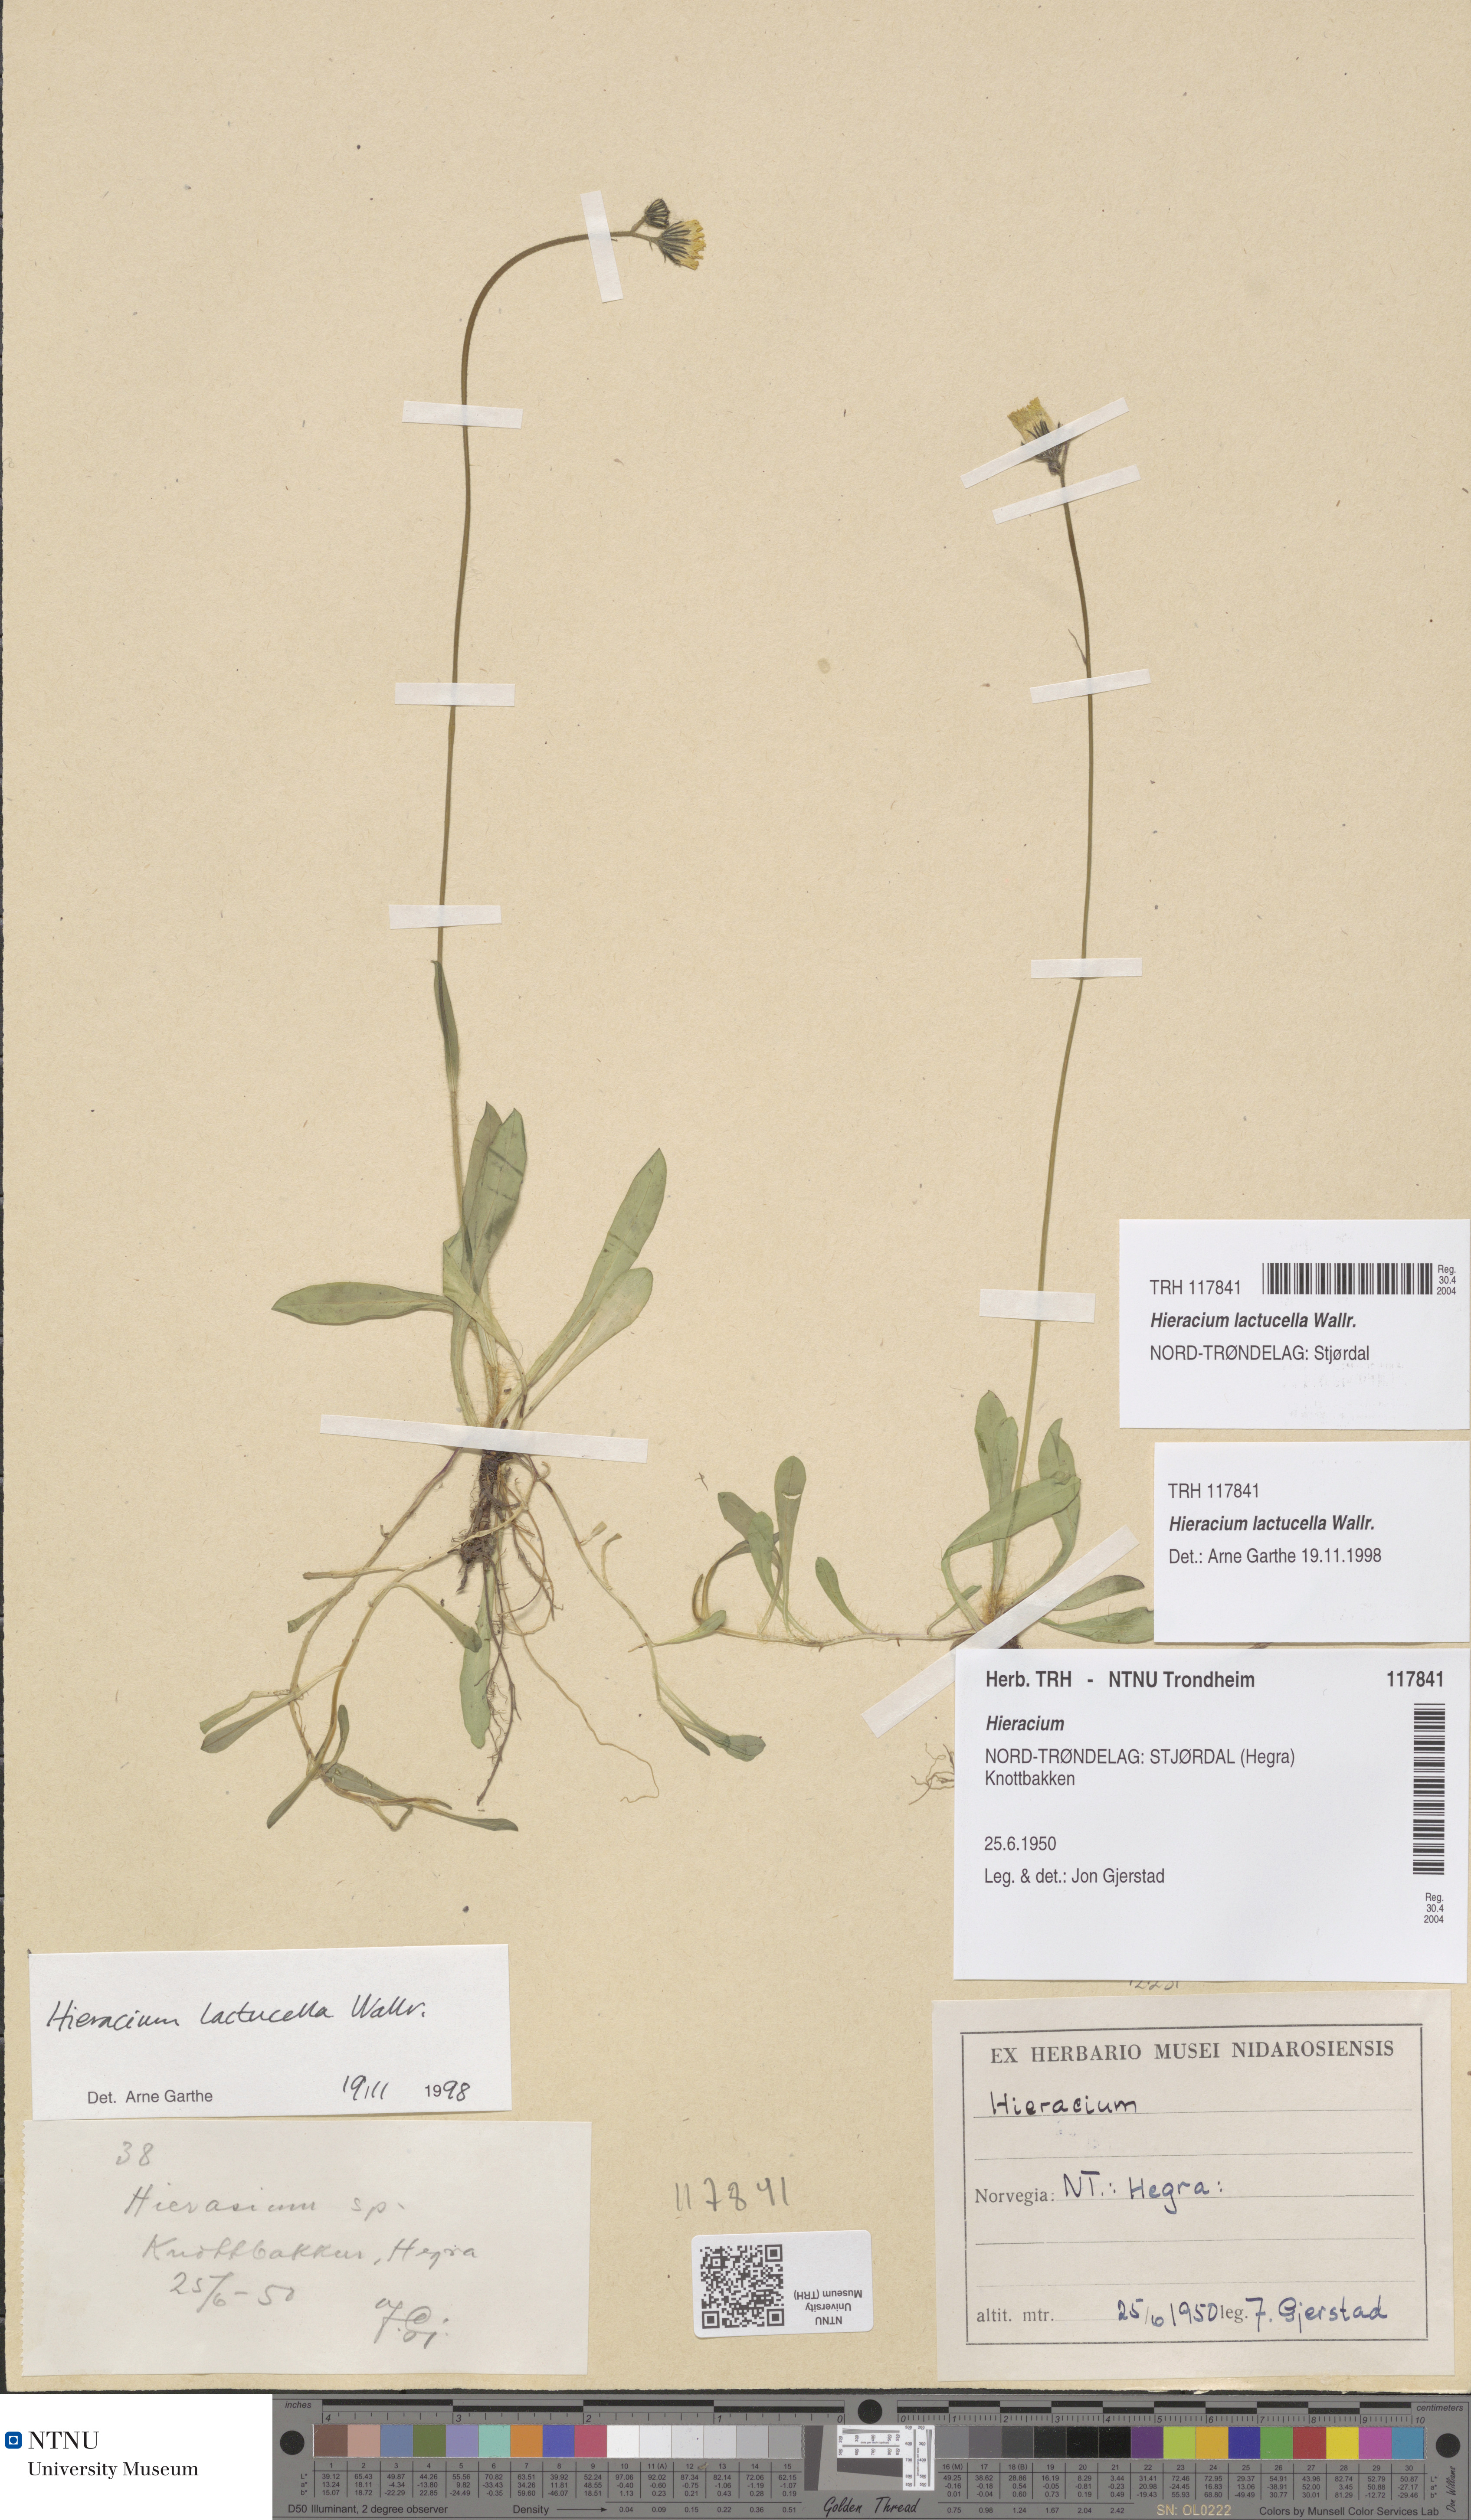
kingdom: Plantae
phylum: Tracheophyta
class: Magnoliopsida
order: Asterales
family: Asteraceae
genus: Pilosella
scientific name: Pilosella lactucella
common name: Glaucous fox-and-cubs
